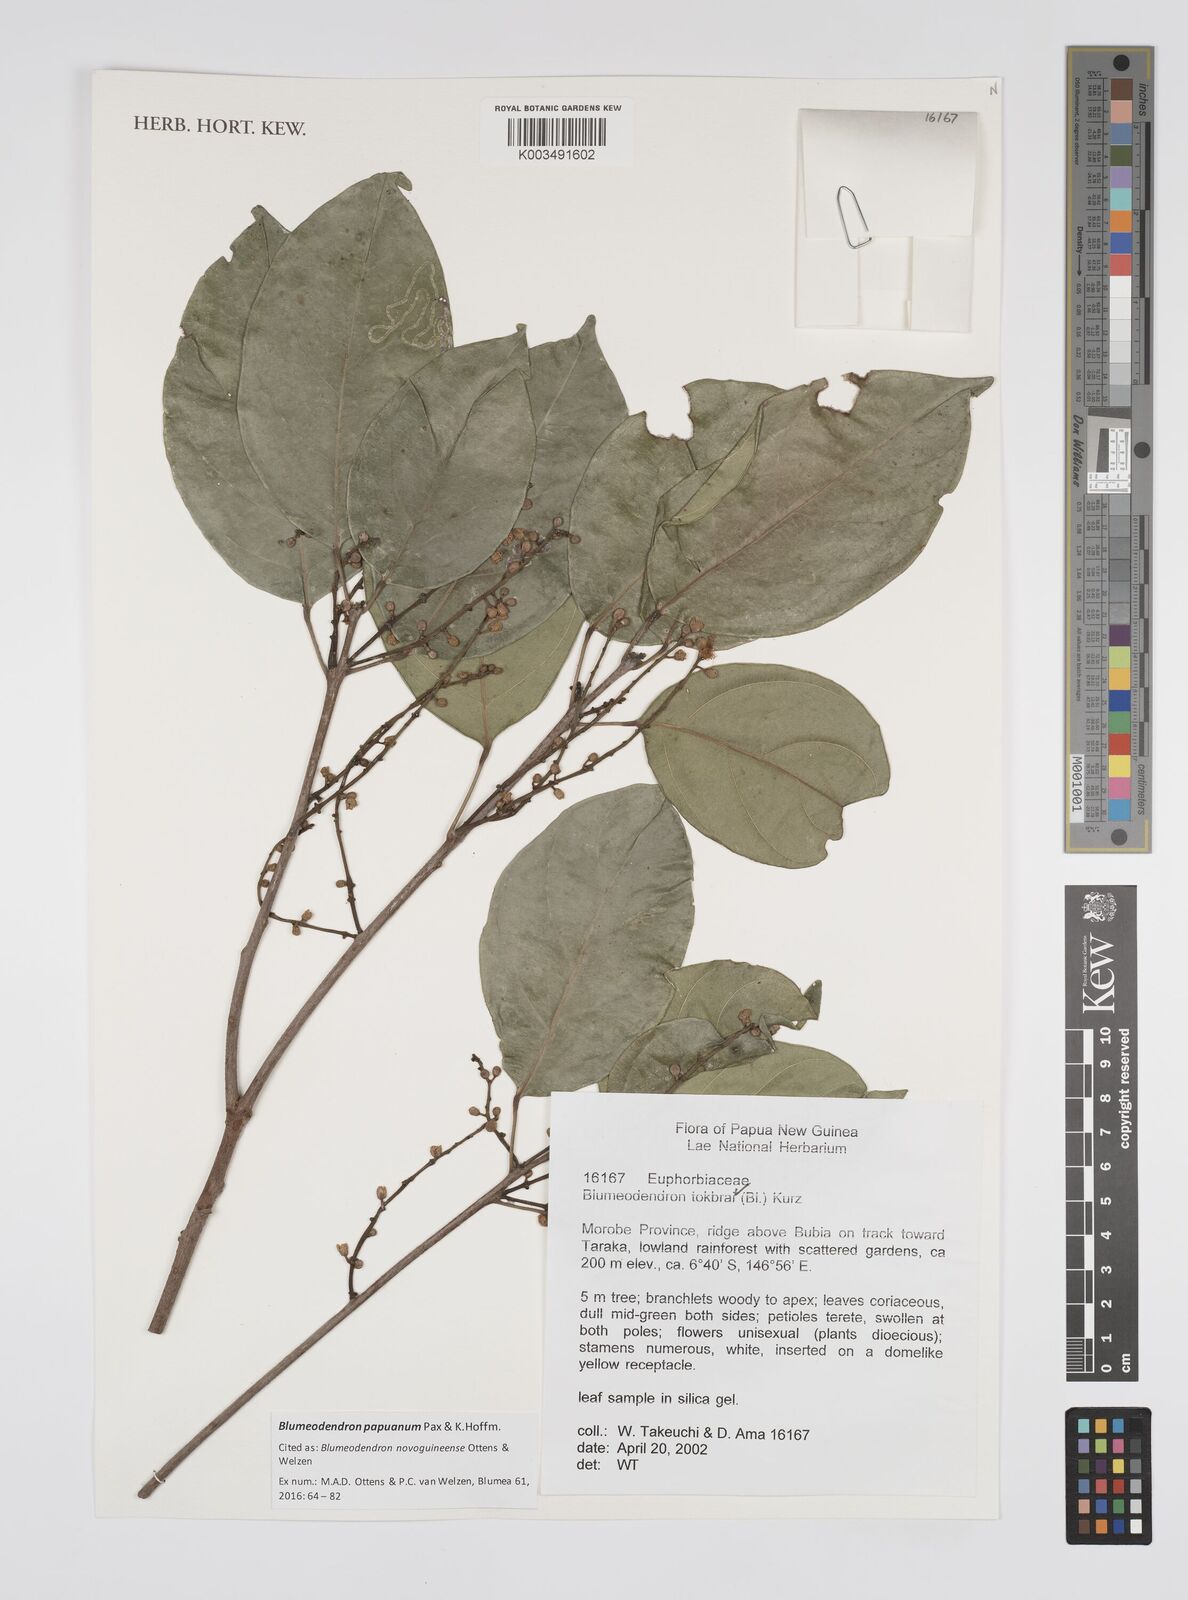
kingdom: Plantae
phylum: Tracheophyta
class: Magnoliopsida
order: Malpighiales
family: Euphorbiaceae
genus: Blumeodendron
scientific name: Blumeodendron papuanum
